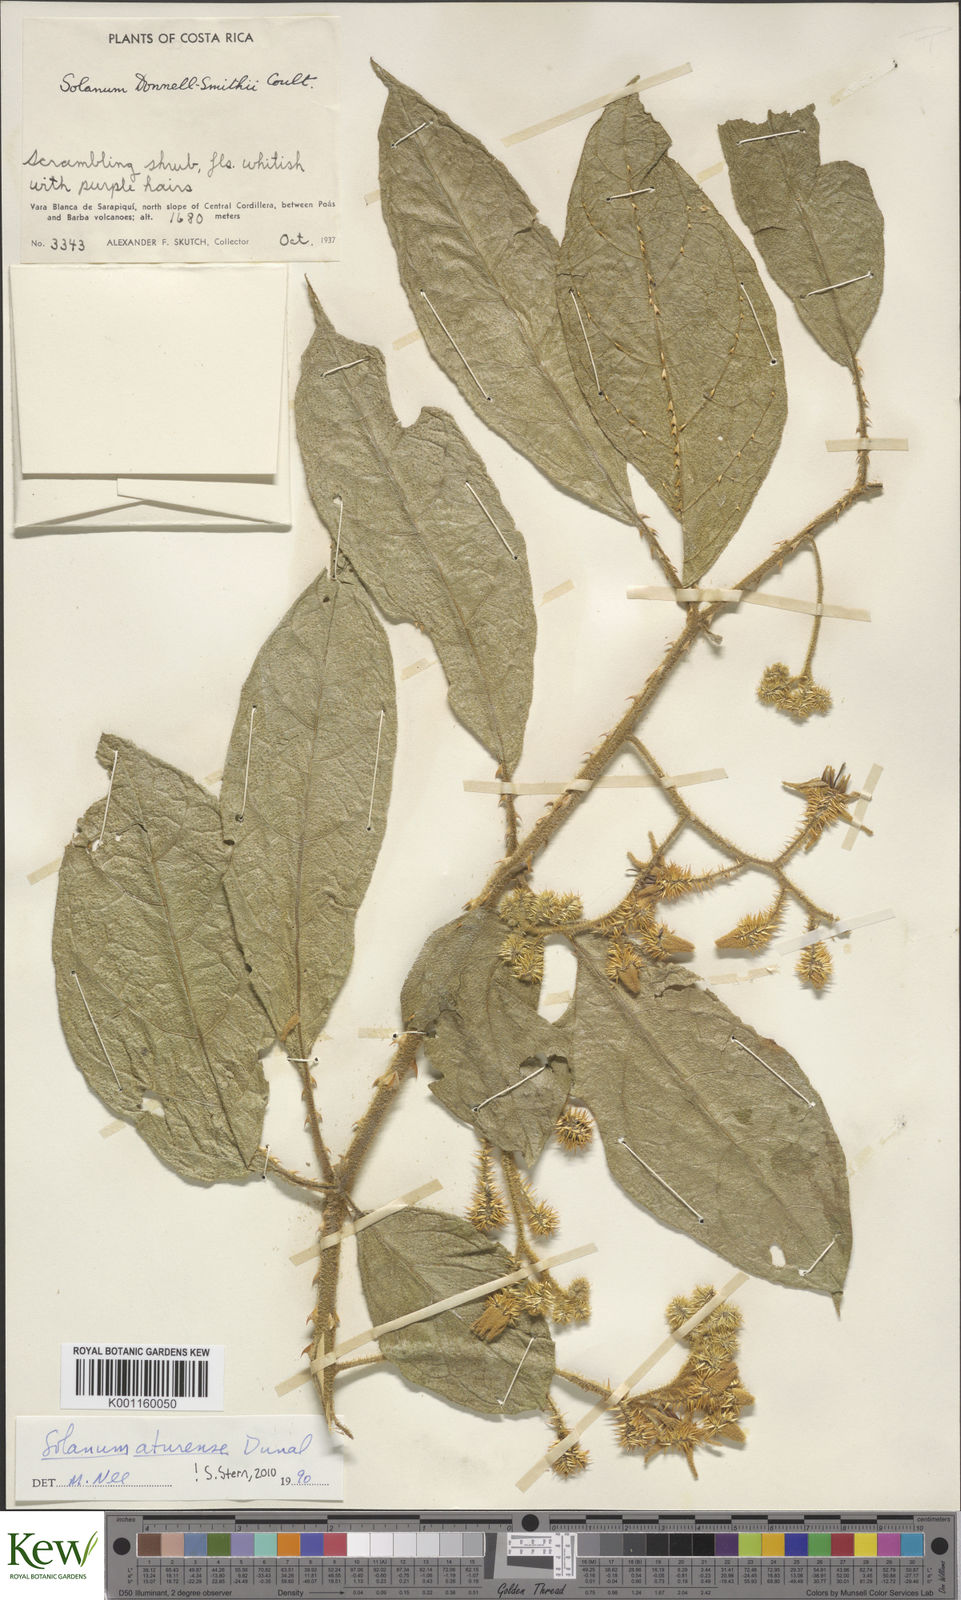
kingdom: Plantae
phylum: Tracheophyta
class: Magnoliopsida
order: Solanales
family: Solanaceae
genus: Solanum
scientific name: Solanum aturense
